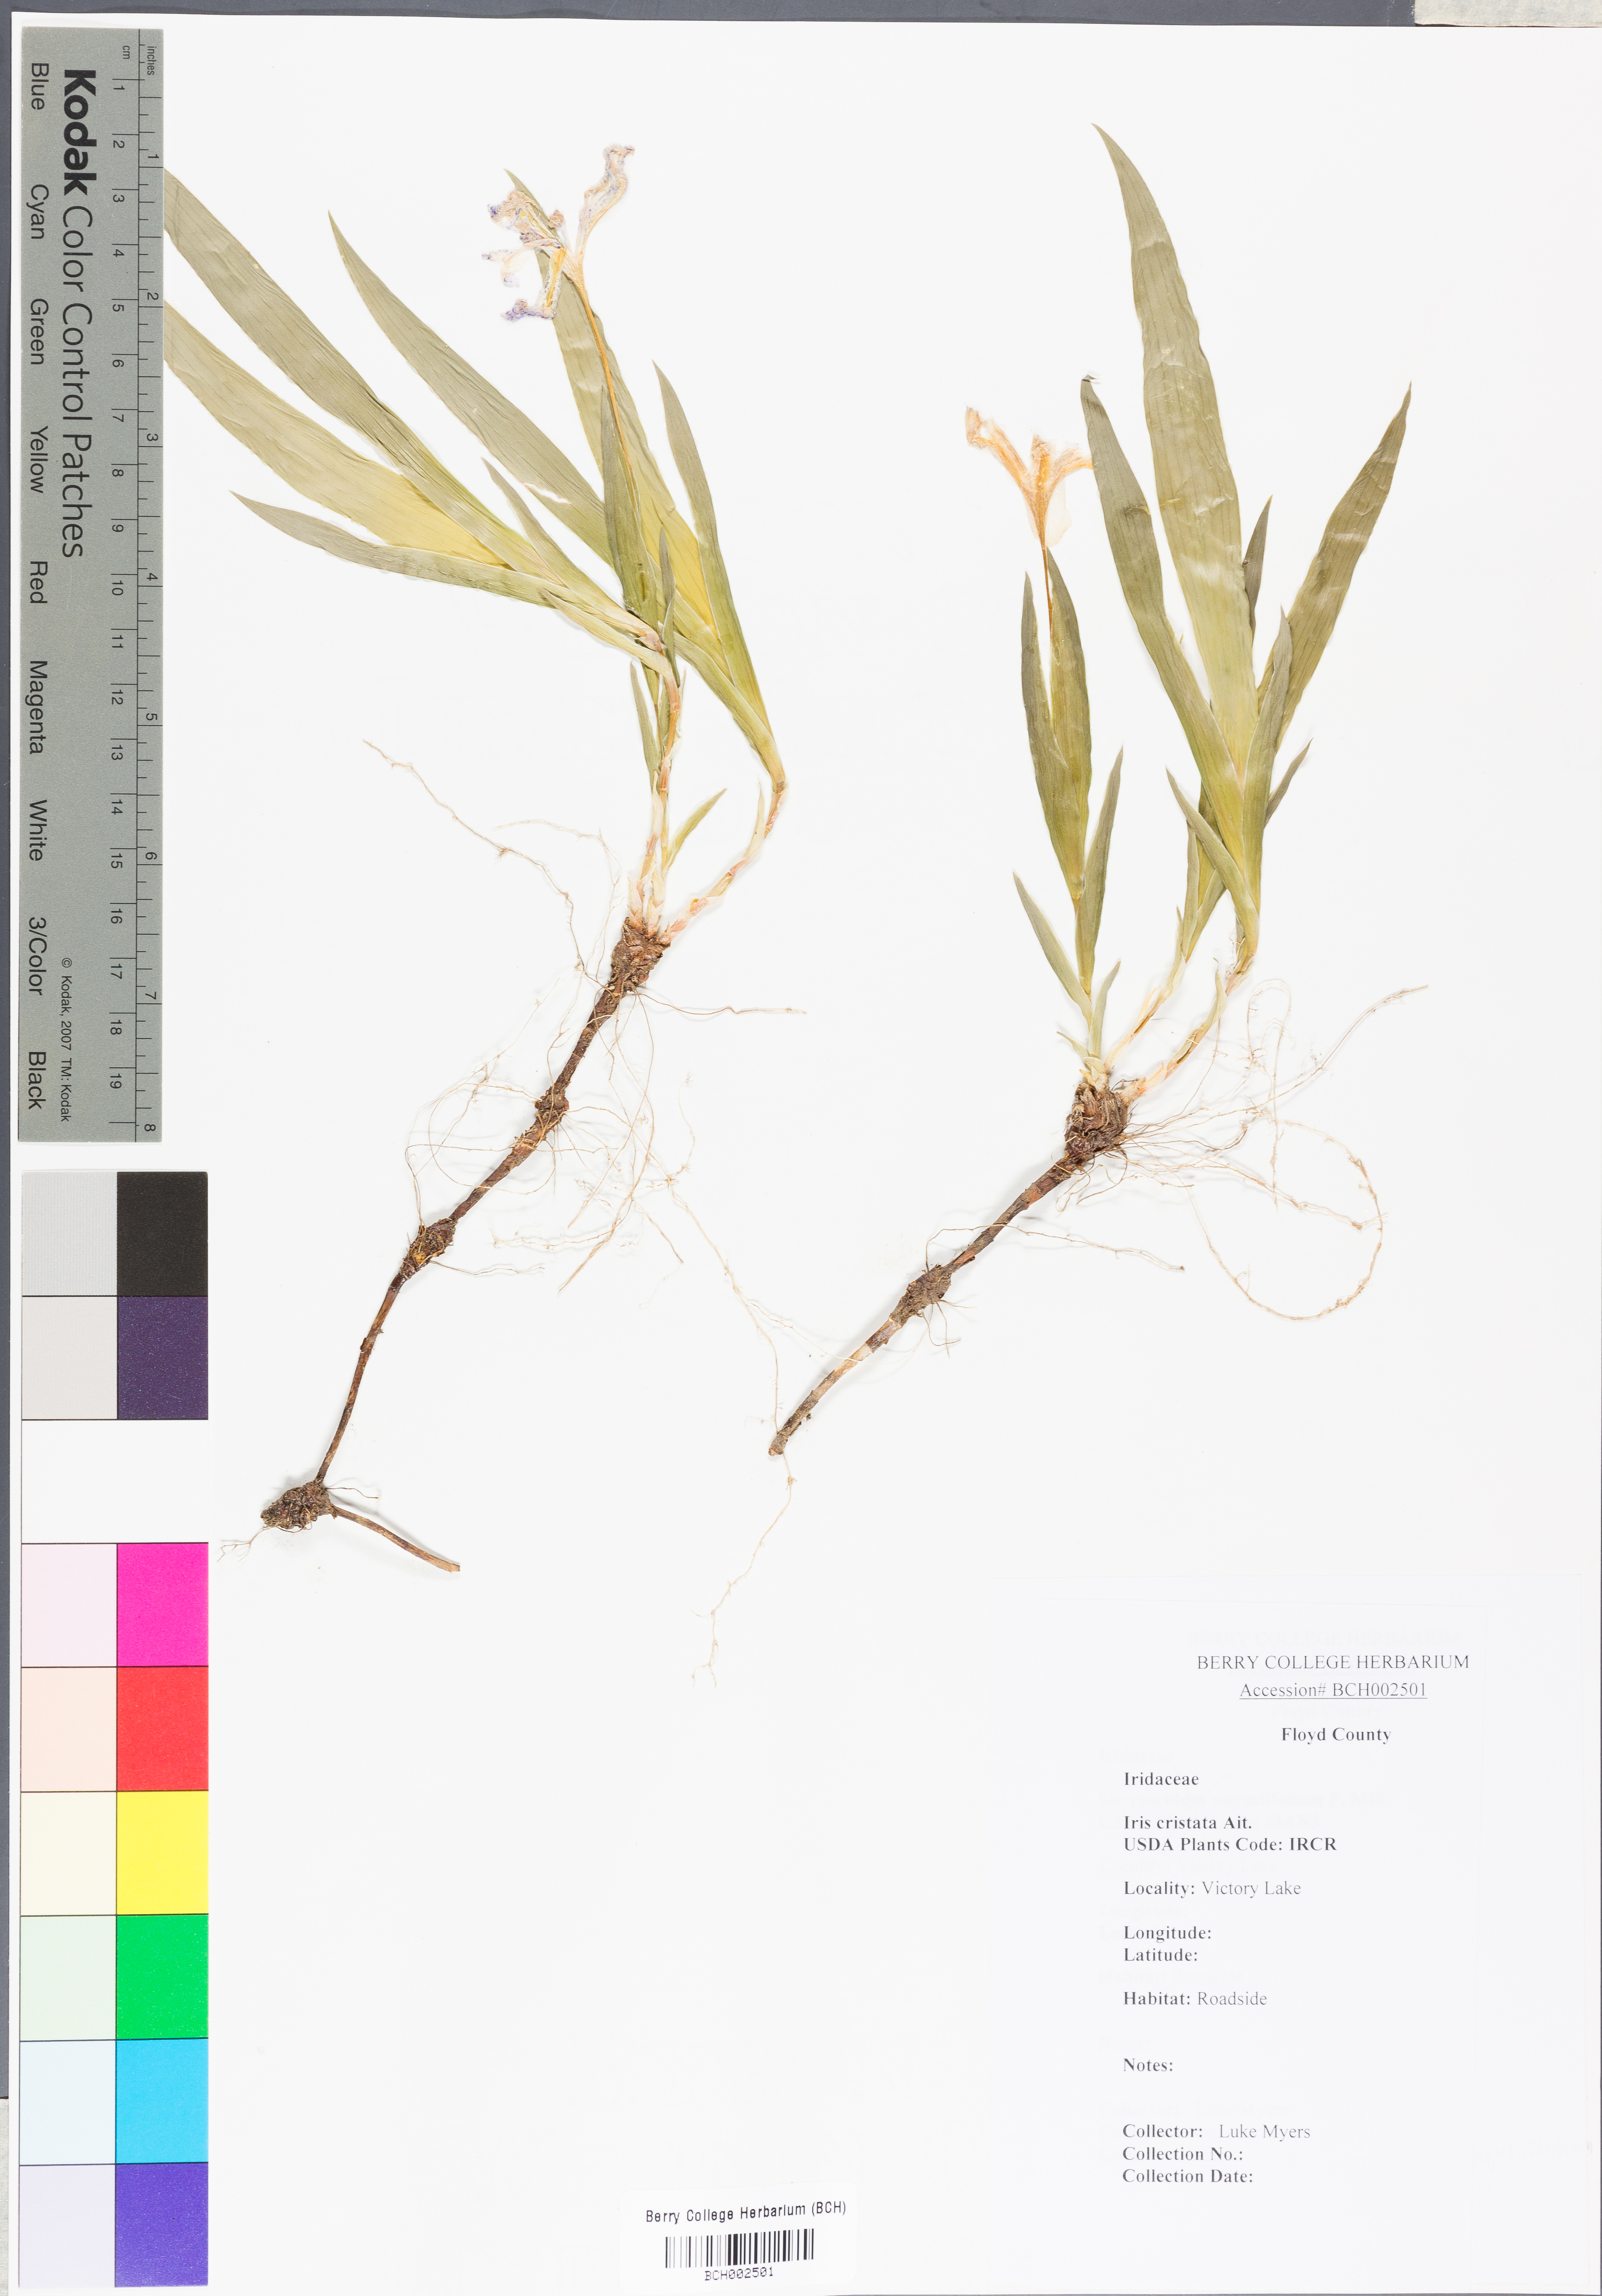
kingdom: Plantae
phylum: Tracheophyta
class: Liliopsida
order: Asparagales
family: Iridaceae
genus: Iris
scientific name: Iris cristata
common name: Crested iris
